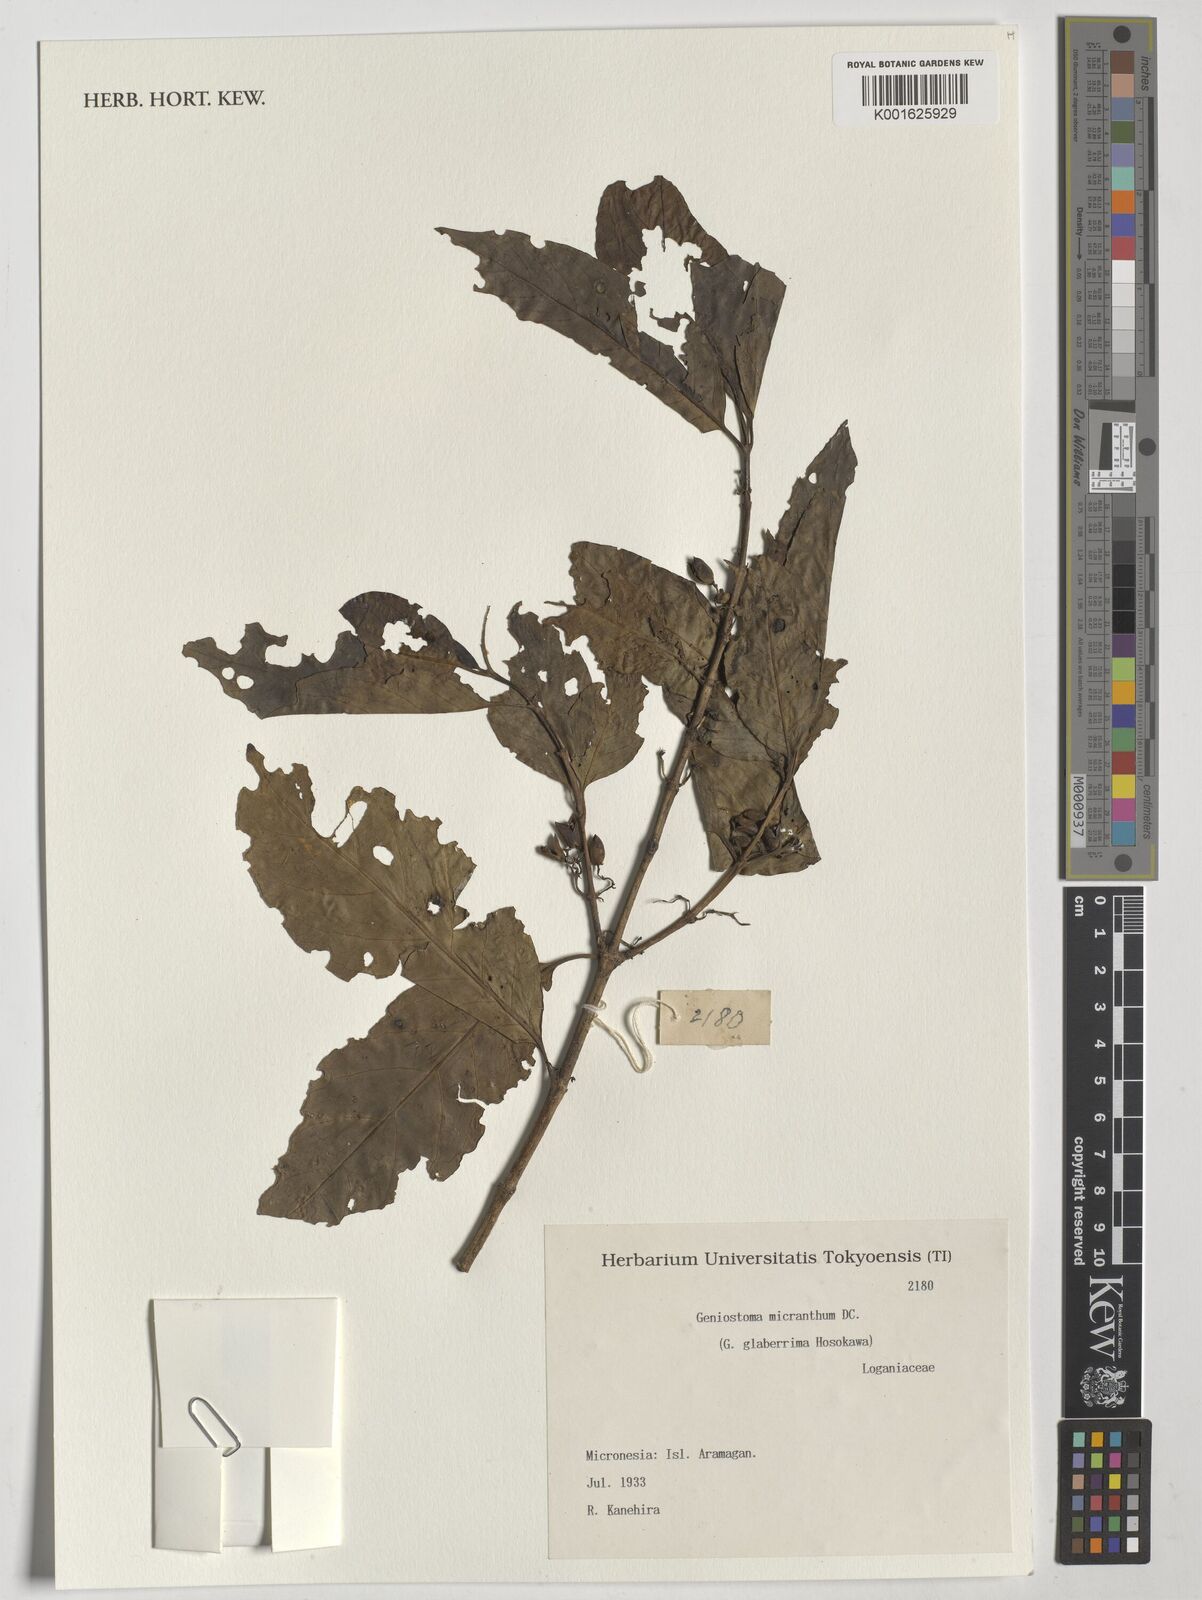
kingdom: Plantae
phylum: Tracheophyta
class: Magnoliopsida
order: Gentianales
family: Loganiaceae
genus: Geniostoma
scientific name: Geniostoma rupestre
